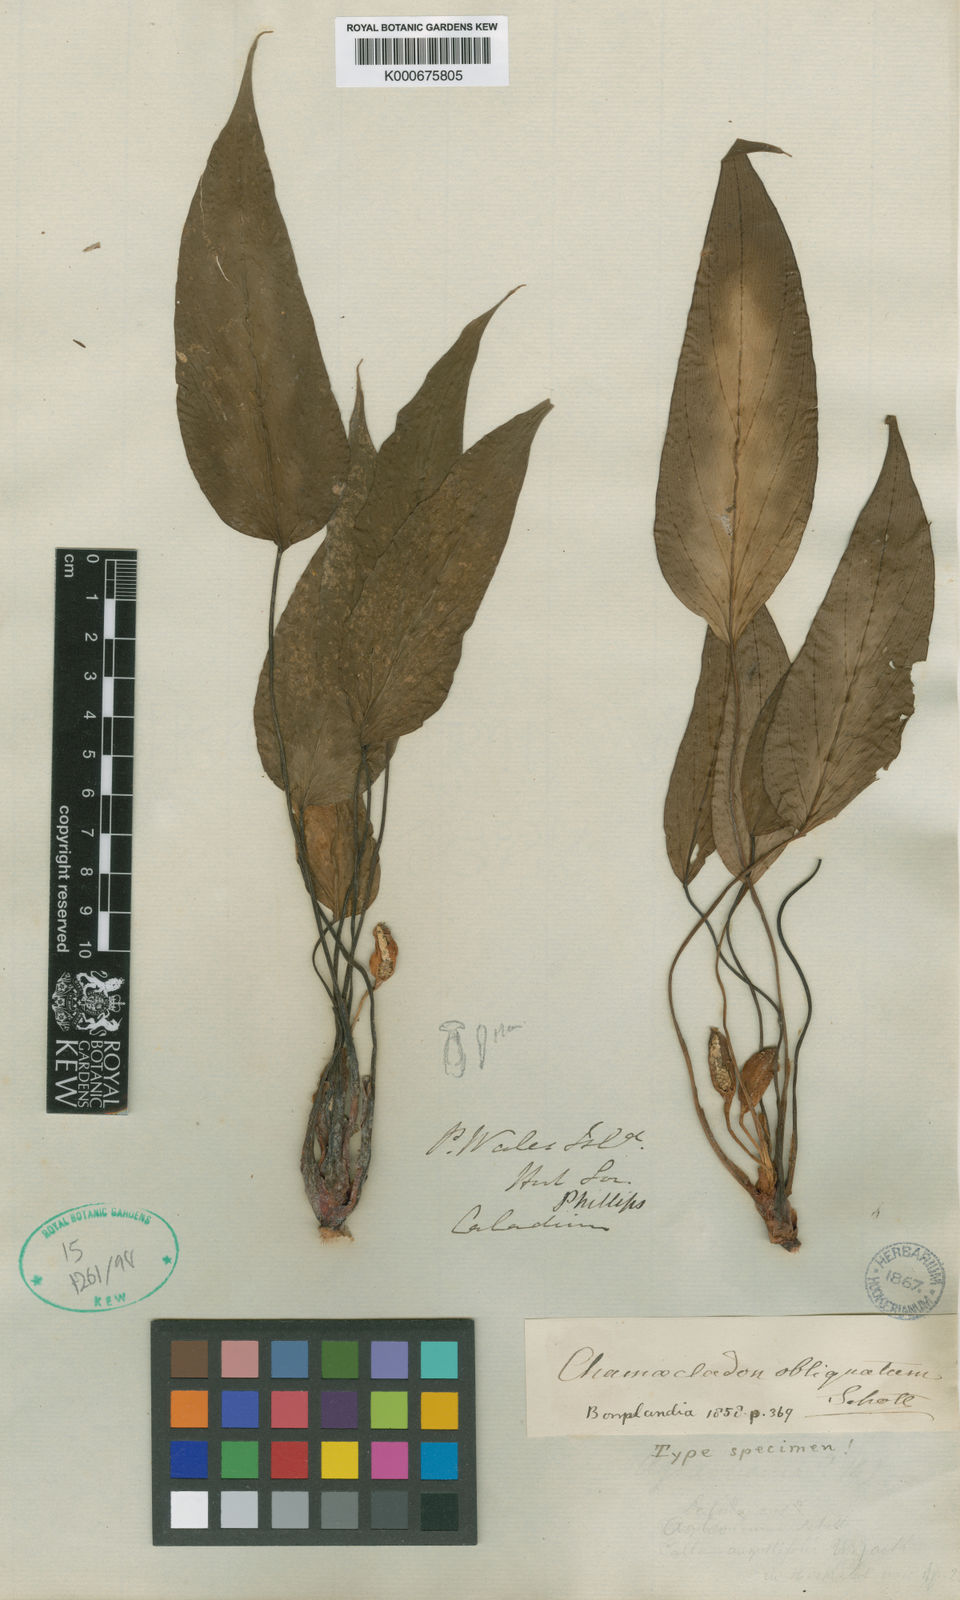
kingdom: Plantae
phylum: Tracheophyta
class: Liliopsida
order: Alismatales
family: Araceae
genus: Homalomena
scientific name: Homalomena griffithii
